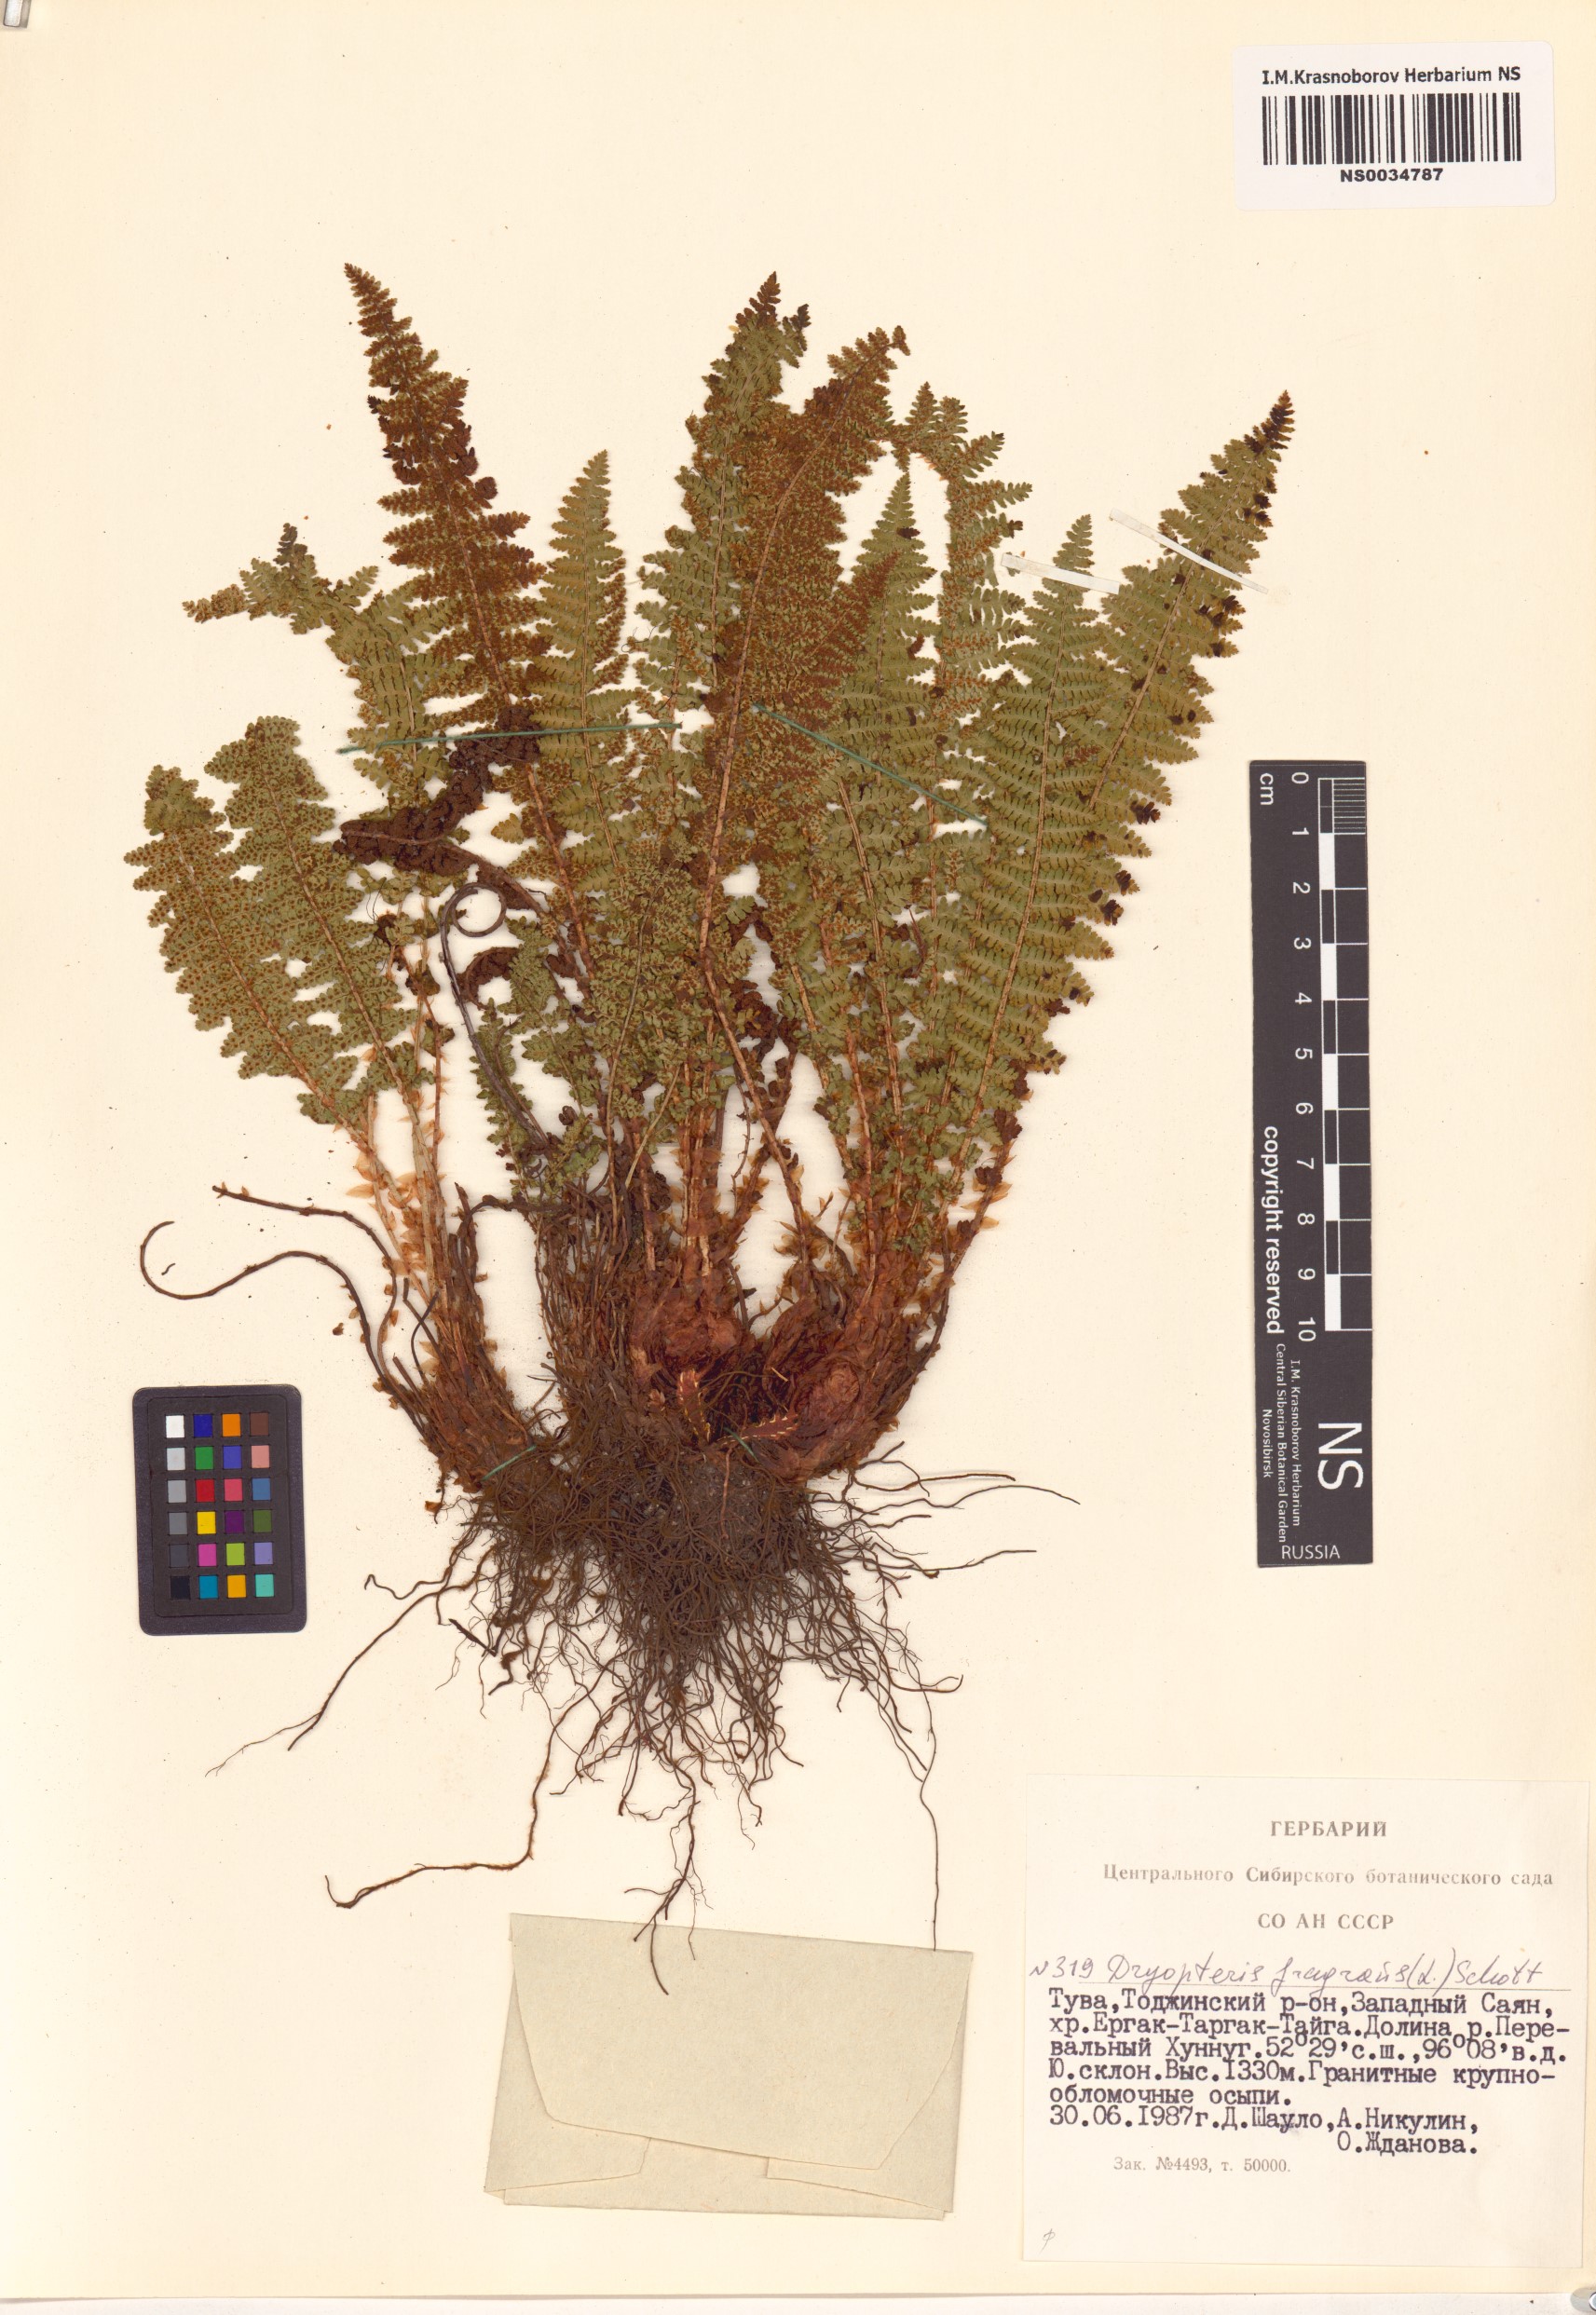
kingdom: Plantae
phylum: Tracheophyta
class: Polypodiopsida
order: Polypodiales
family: Dryopteridaceae
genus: Dryopteris
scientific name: Dryopteris fragrans
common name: Fragrant wood fern
